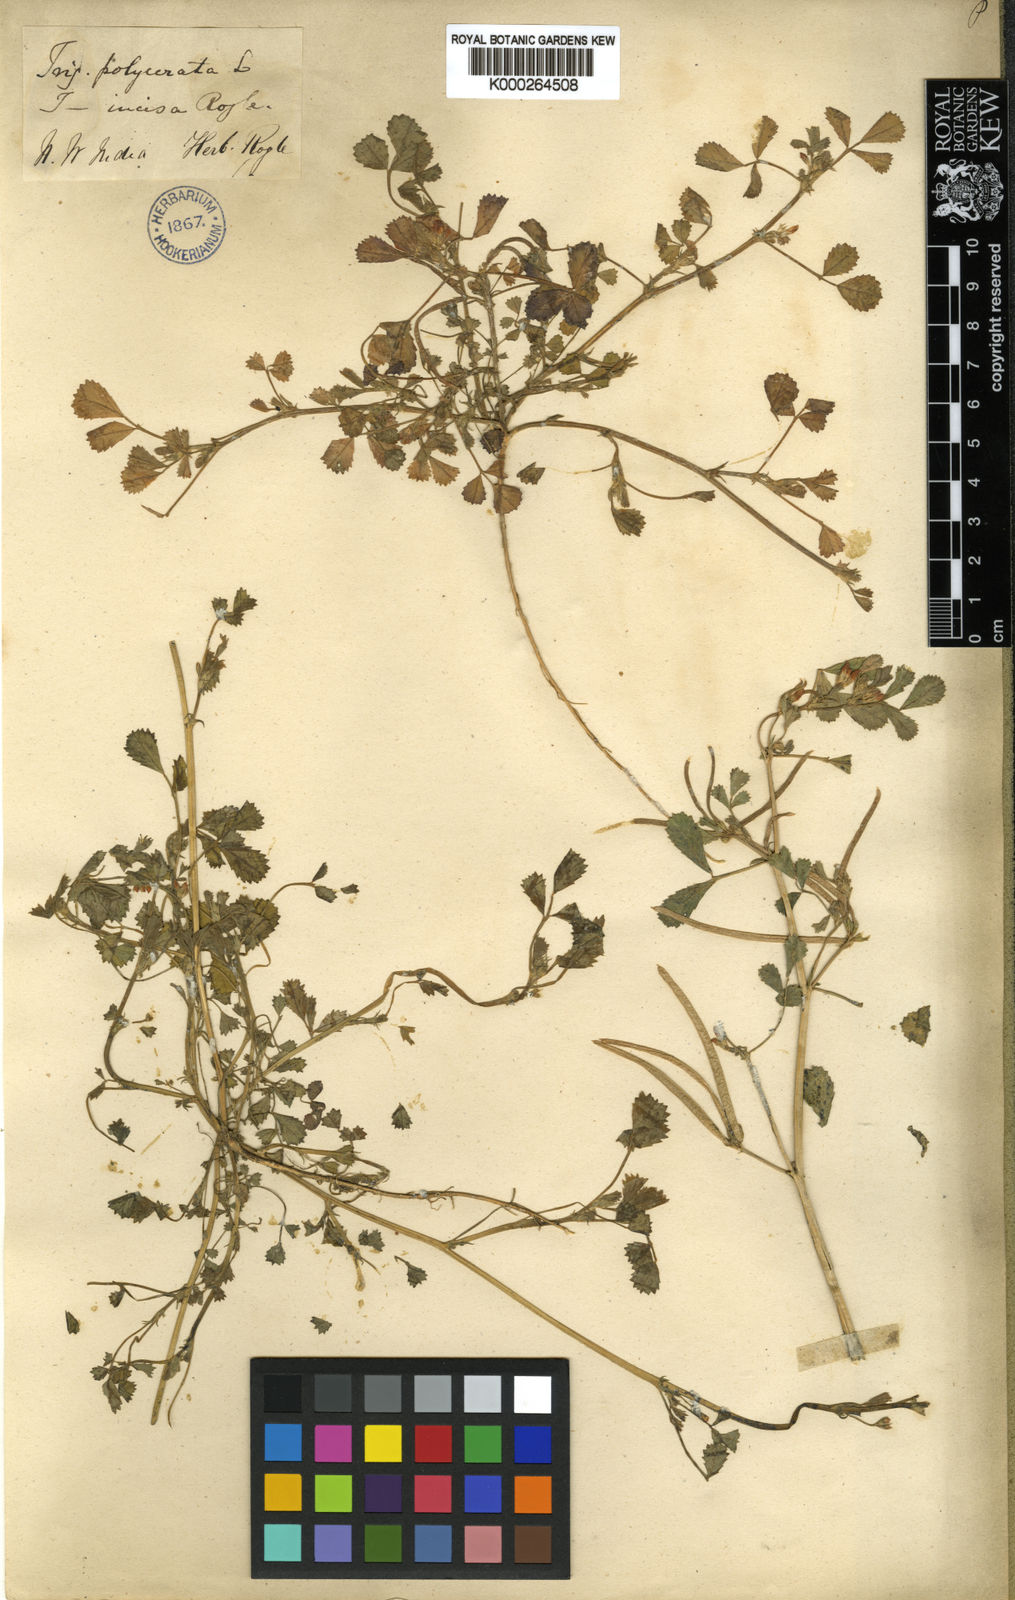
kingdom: Plantae
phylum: Tracheophyta
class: Magnoliopsida
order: Fabales
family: Fabaceae
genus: Medicago
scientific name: Medicago monantha
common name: Medick
